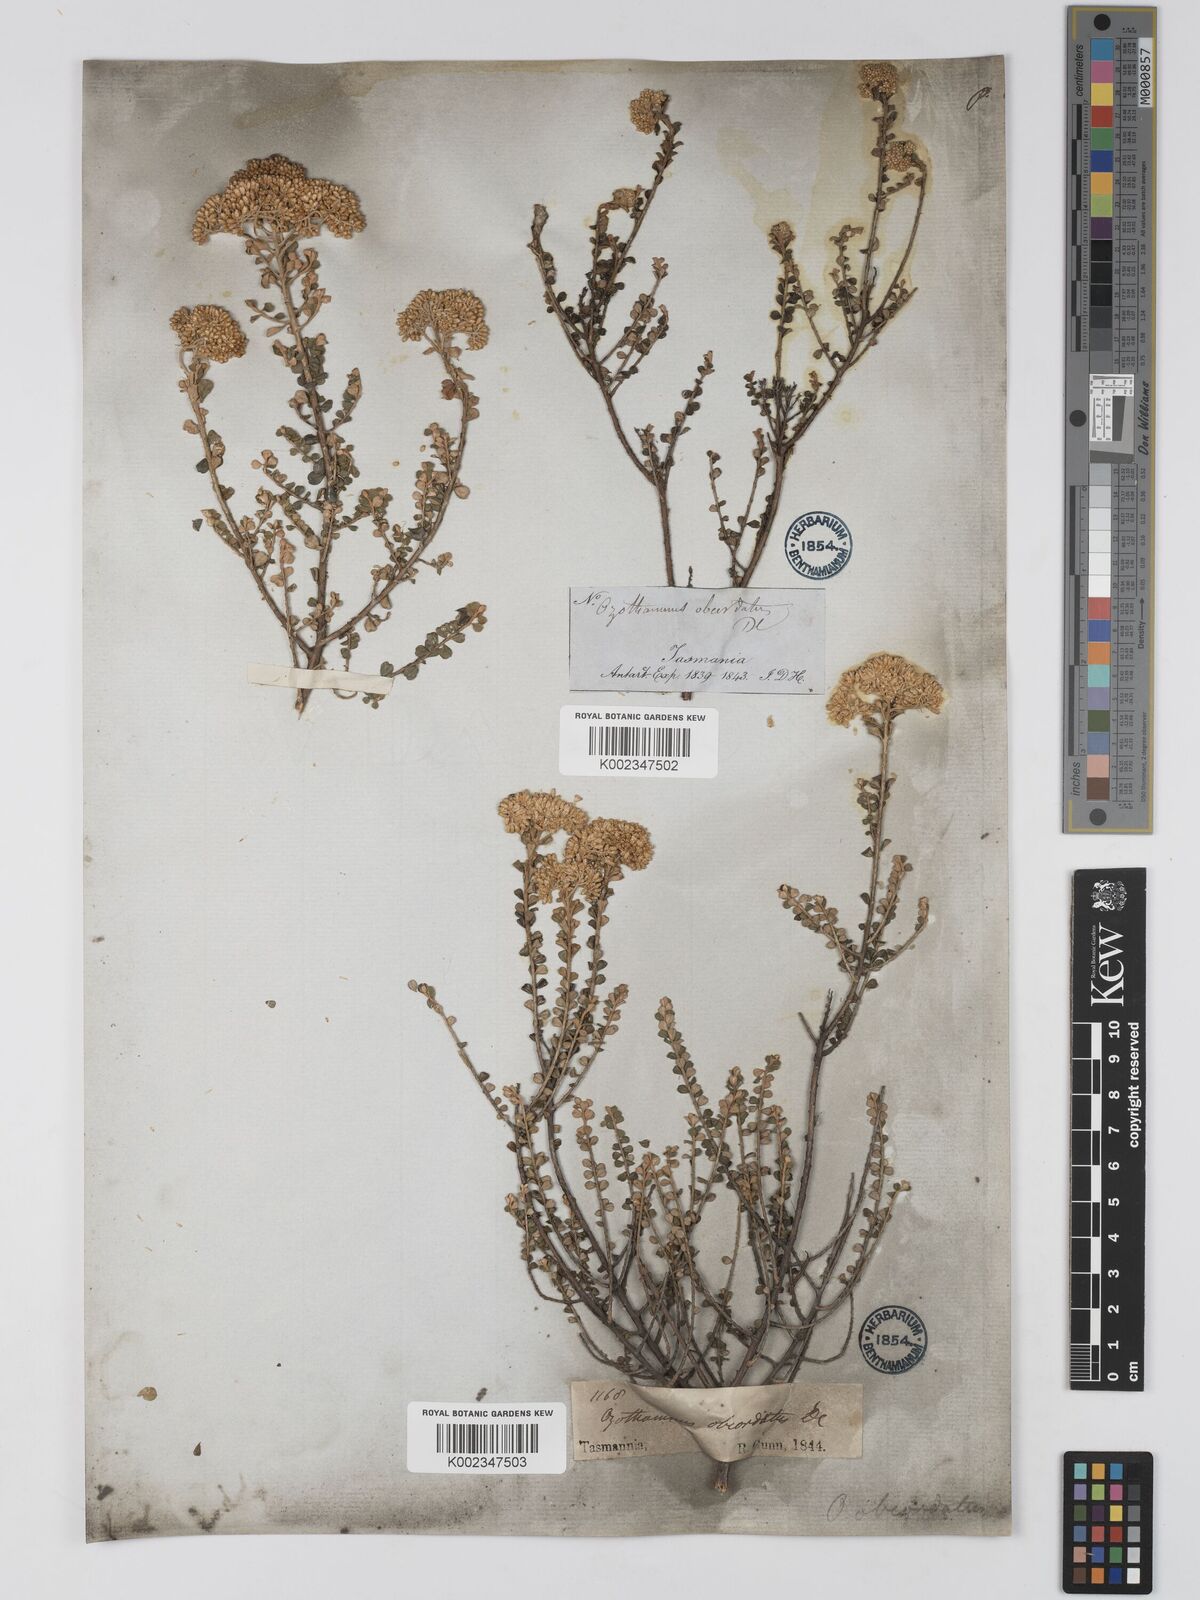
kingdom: Plantae
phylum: Tracheophyta
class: Magnoliopsida
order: Asterales
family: Asteraceae
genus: Ozothamnus
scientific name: Ozothamnus
